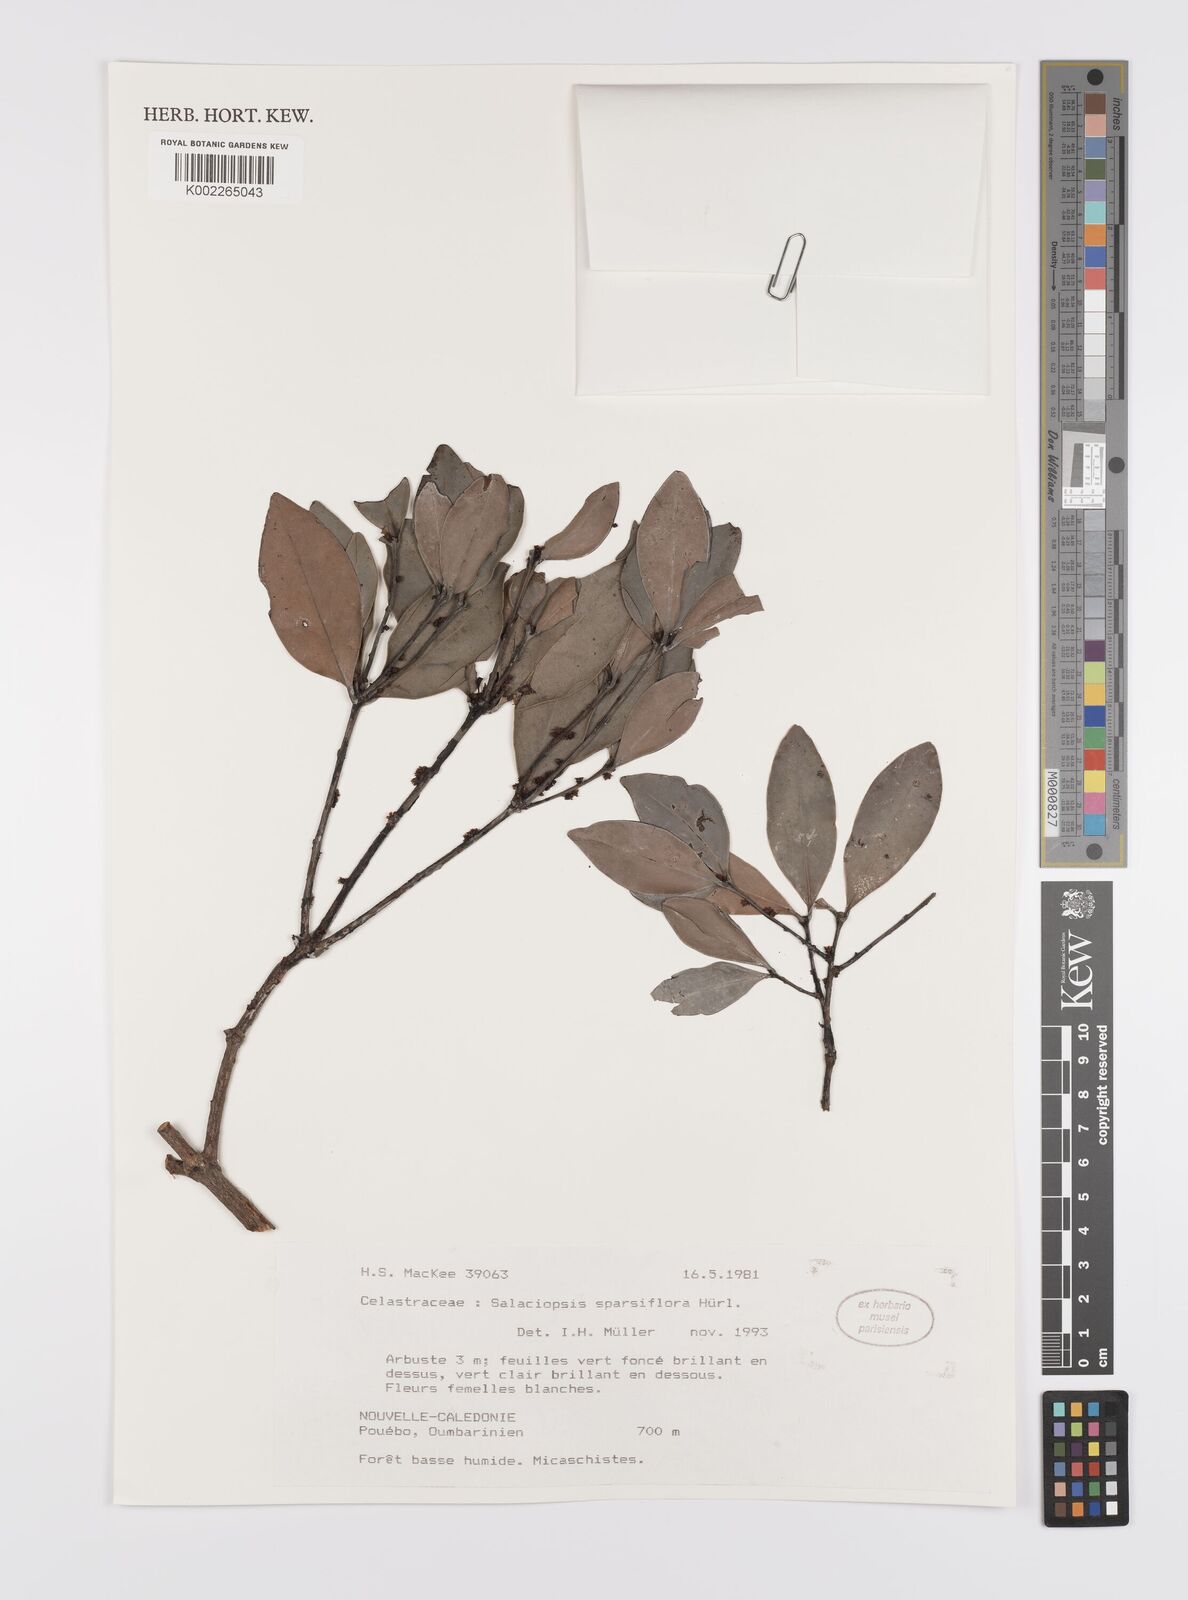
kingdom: Plantae
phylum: Tracheophyta
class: Magnoliopsida
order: Celastrales
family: Celastraceae
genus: Salaciopsis
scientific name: Salaciopsis sparsiflora
